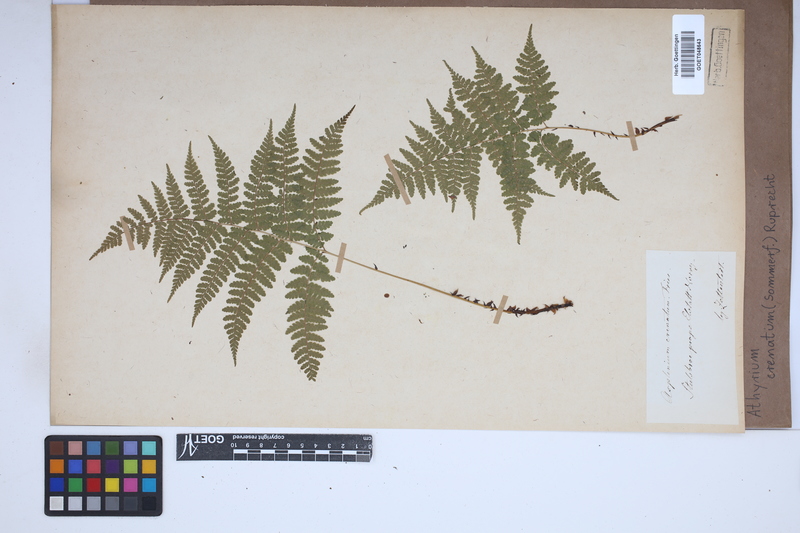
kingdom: Plantae
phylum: Tracheophyta
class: Polypodiopsida
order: Polypodiales
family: Athyriaceae
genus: Diplazium
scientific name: Diplazium sibiricum
